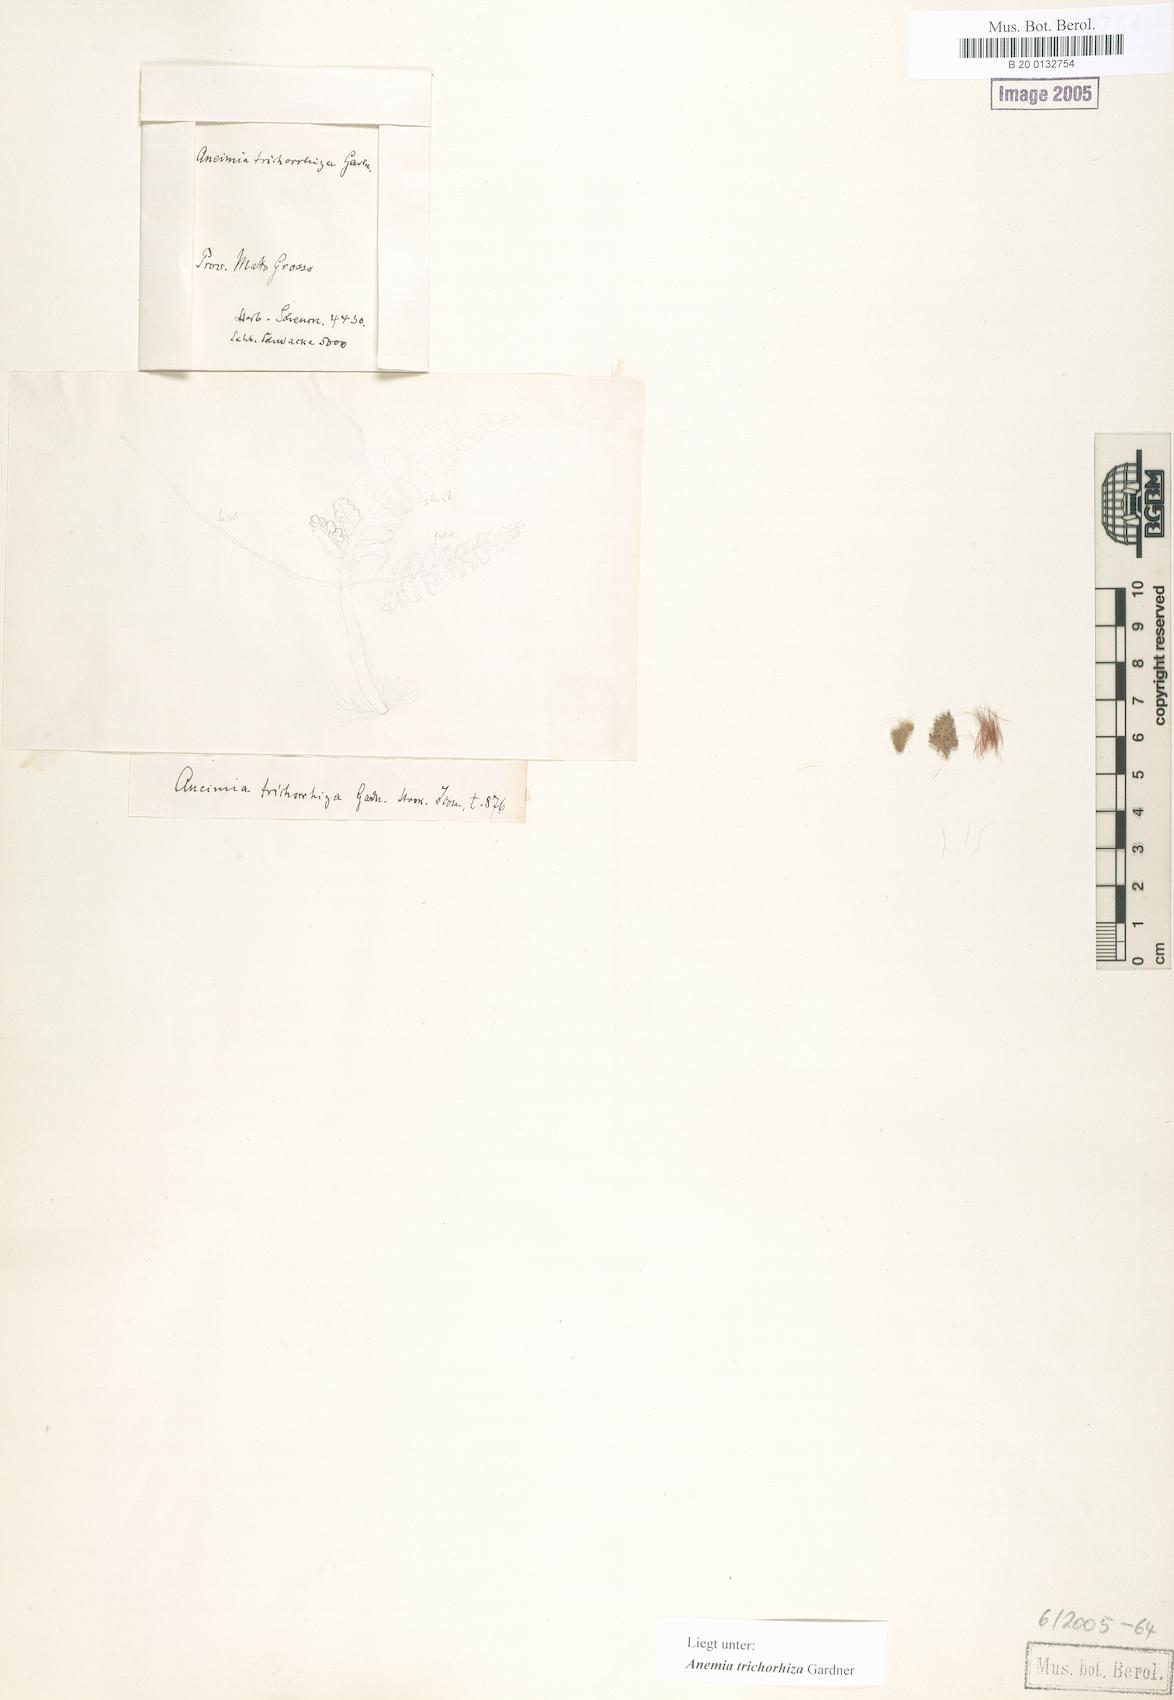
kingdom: Plantae
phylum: Tracheophyta
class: Polypodiopsida
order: Schizaeales
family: Anemiaceae
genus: Anemia
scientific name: Anemia trichorhiza
